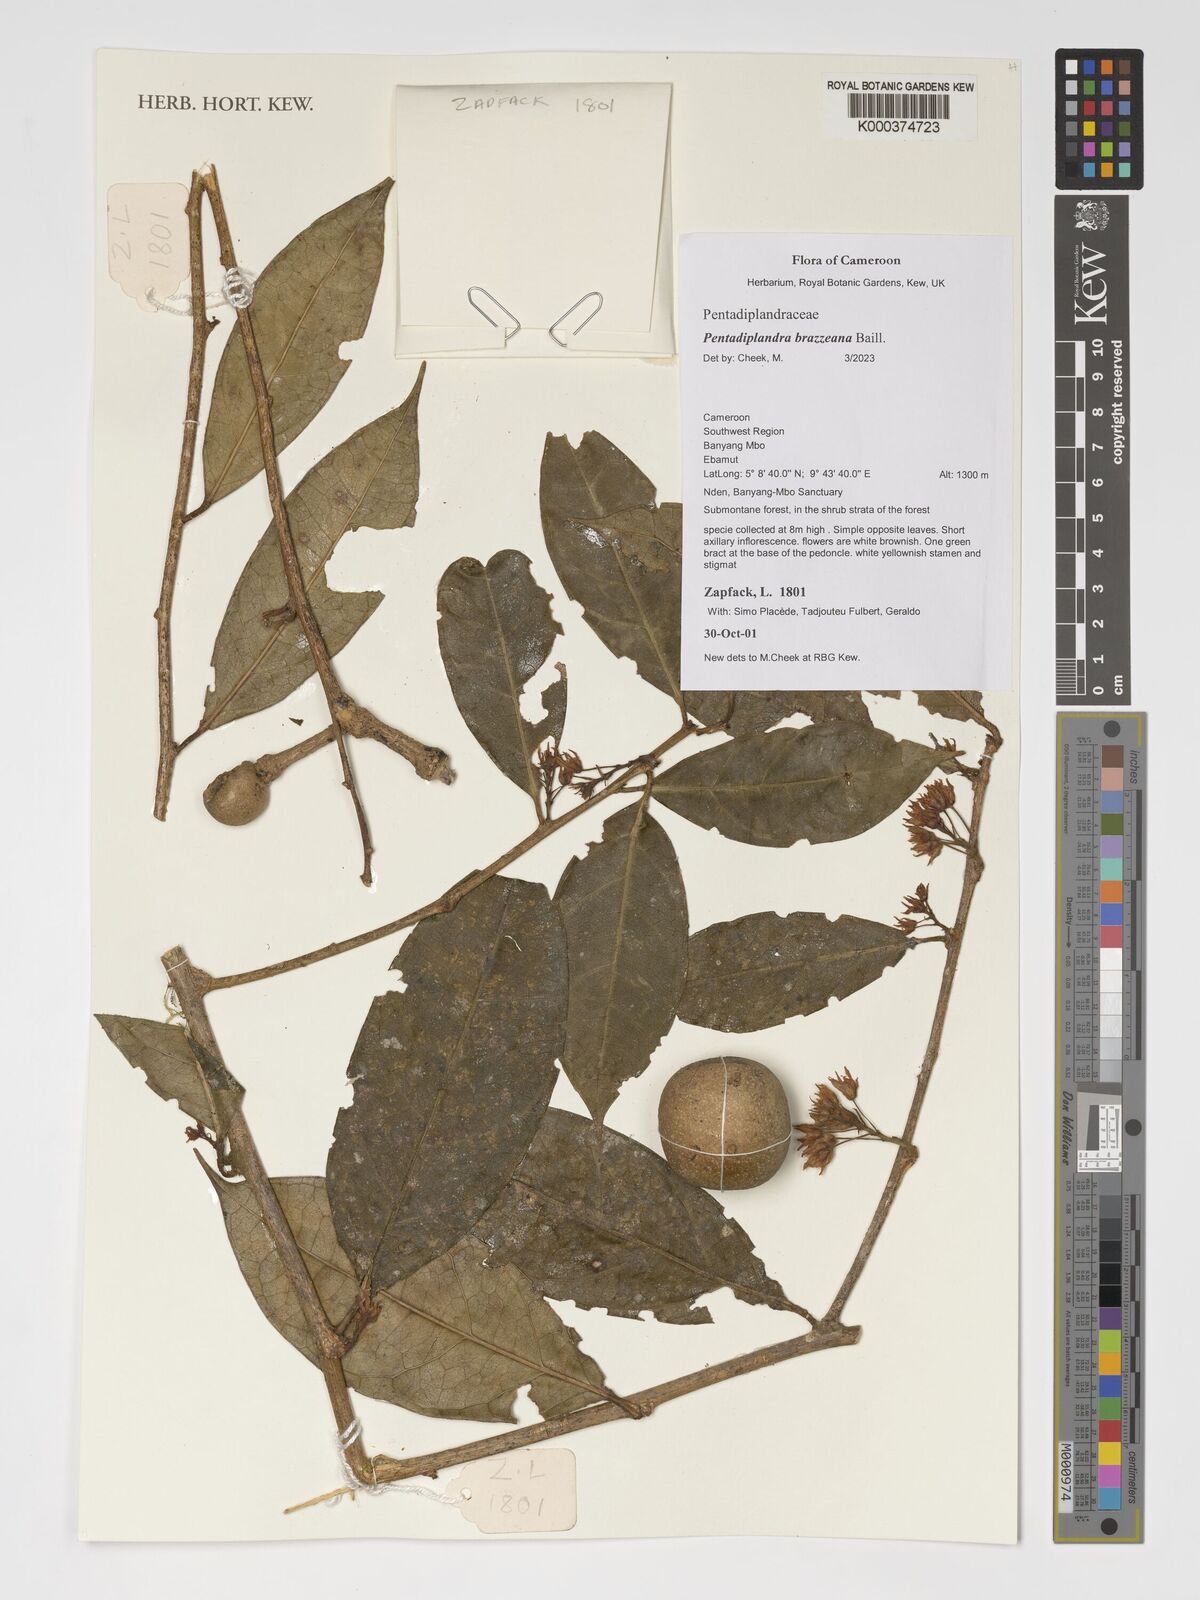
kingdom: Plantae
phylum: Tracheophyta
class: Magnoliopsida
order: Brassicales
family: Pentadiplandraceae
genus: Pentadiplandra
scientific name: Pentadiplandra brazzeana
